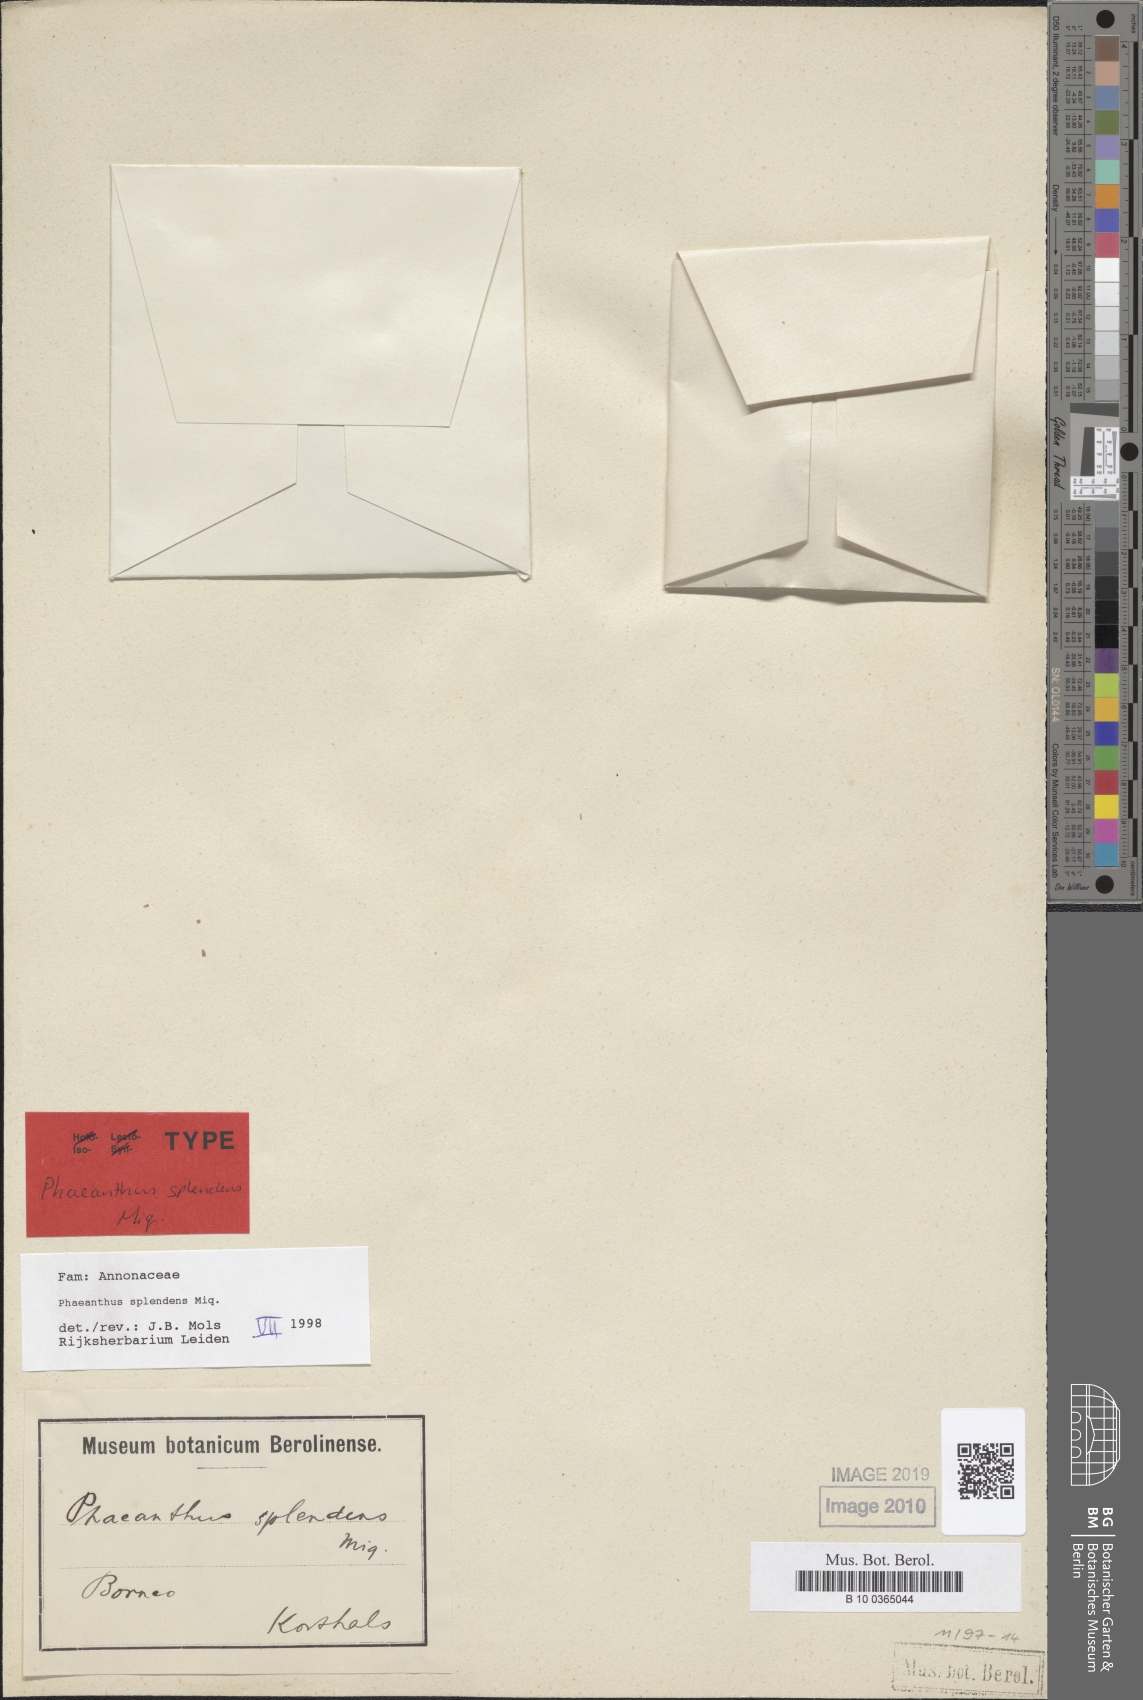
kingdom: Plantae
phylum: Tracheophyta
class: Magnoliopsida
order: Magnoliales
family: Annonaceae
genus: Phaeanthus
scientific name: Phaeanthus splendens
